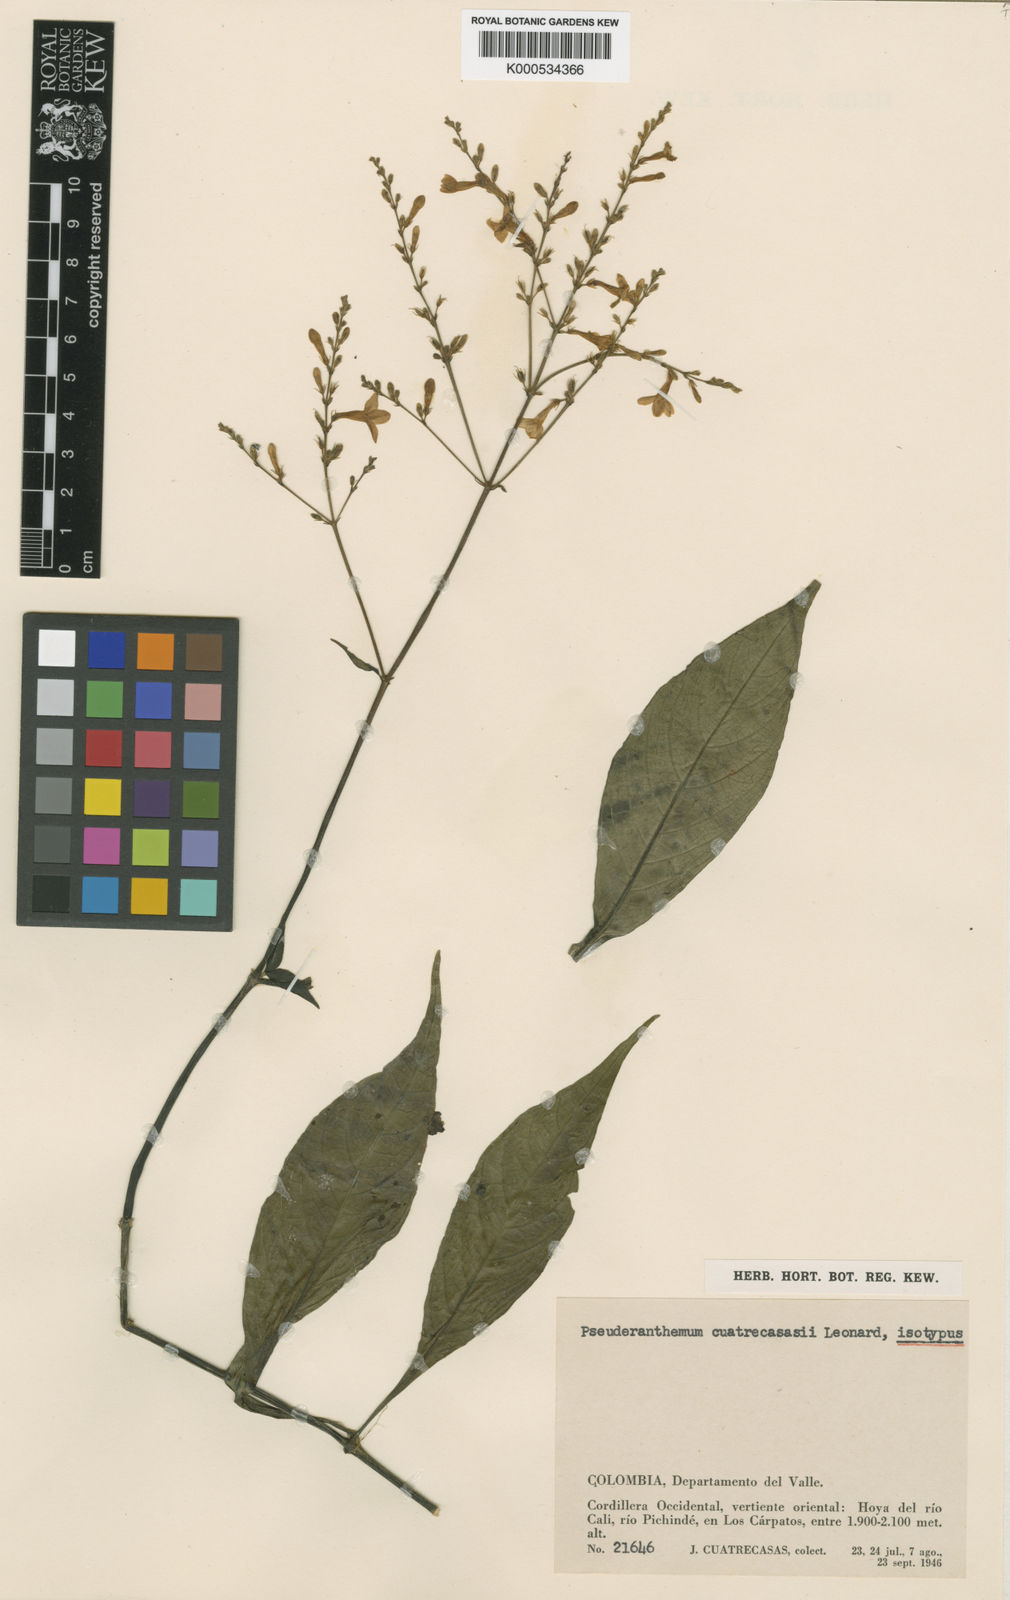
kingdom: Plantae
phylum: Tracheophyta
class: Magnoliopsida
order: Lamiales
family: Acanthaceae
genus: Pseuderanthemum
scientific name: Pseuderanthemum dawei
